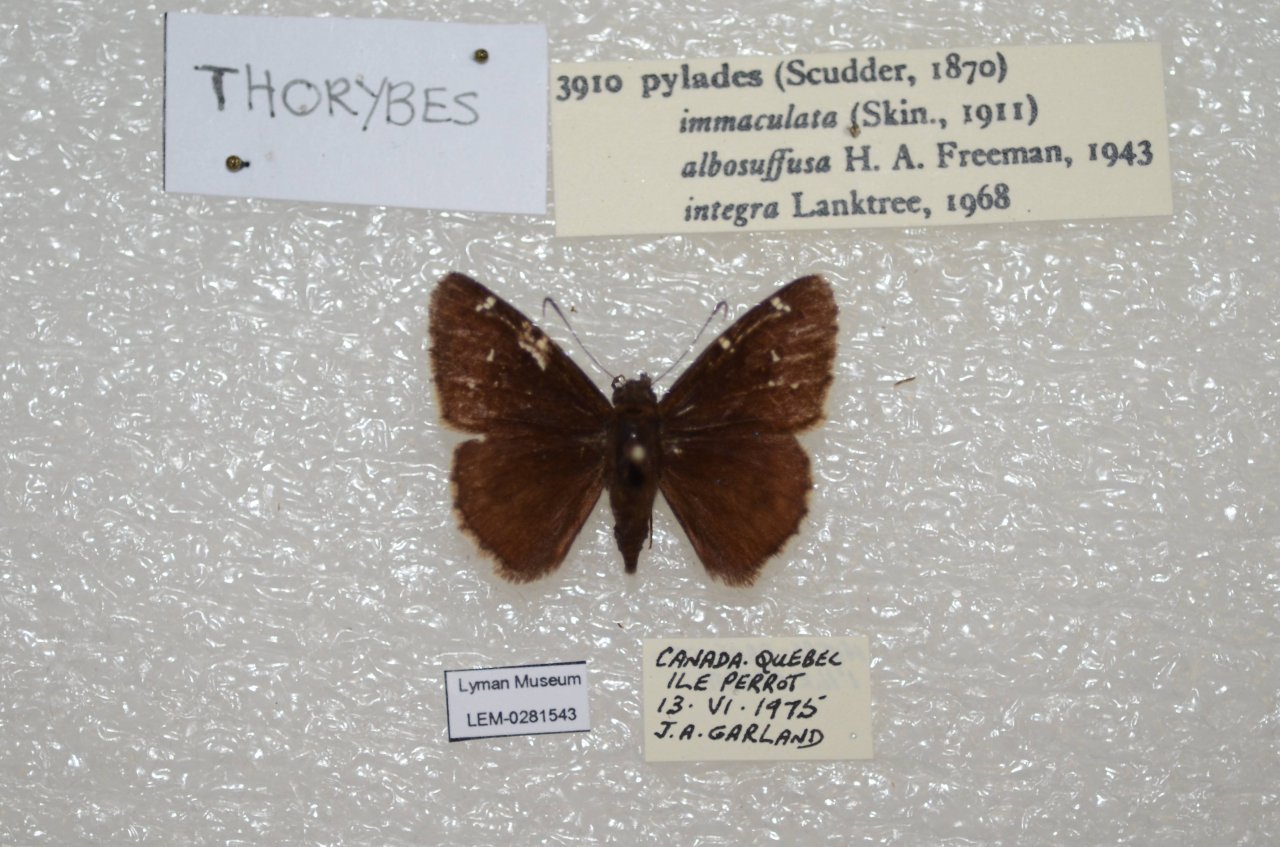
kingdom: Animalia
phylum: Arthropoda
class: Insecta
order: Lepidoptera
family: Hesperiidae
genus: Autochton
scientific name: Autochton
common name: Northern Cloudywing
